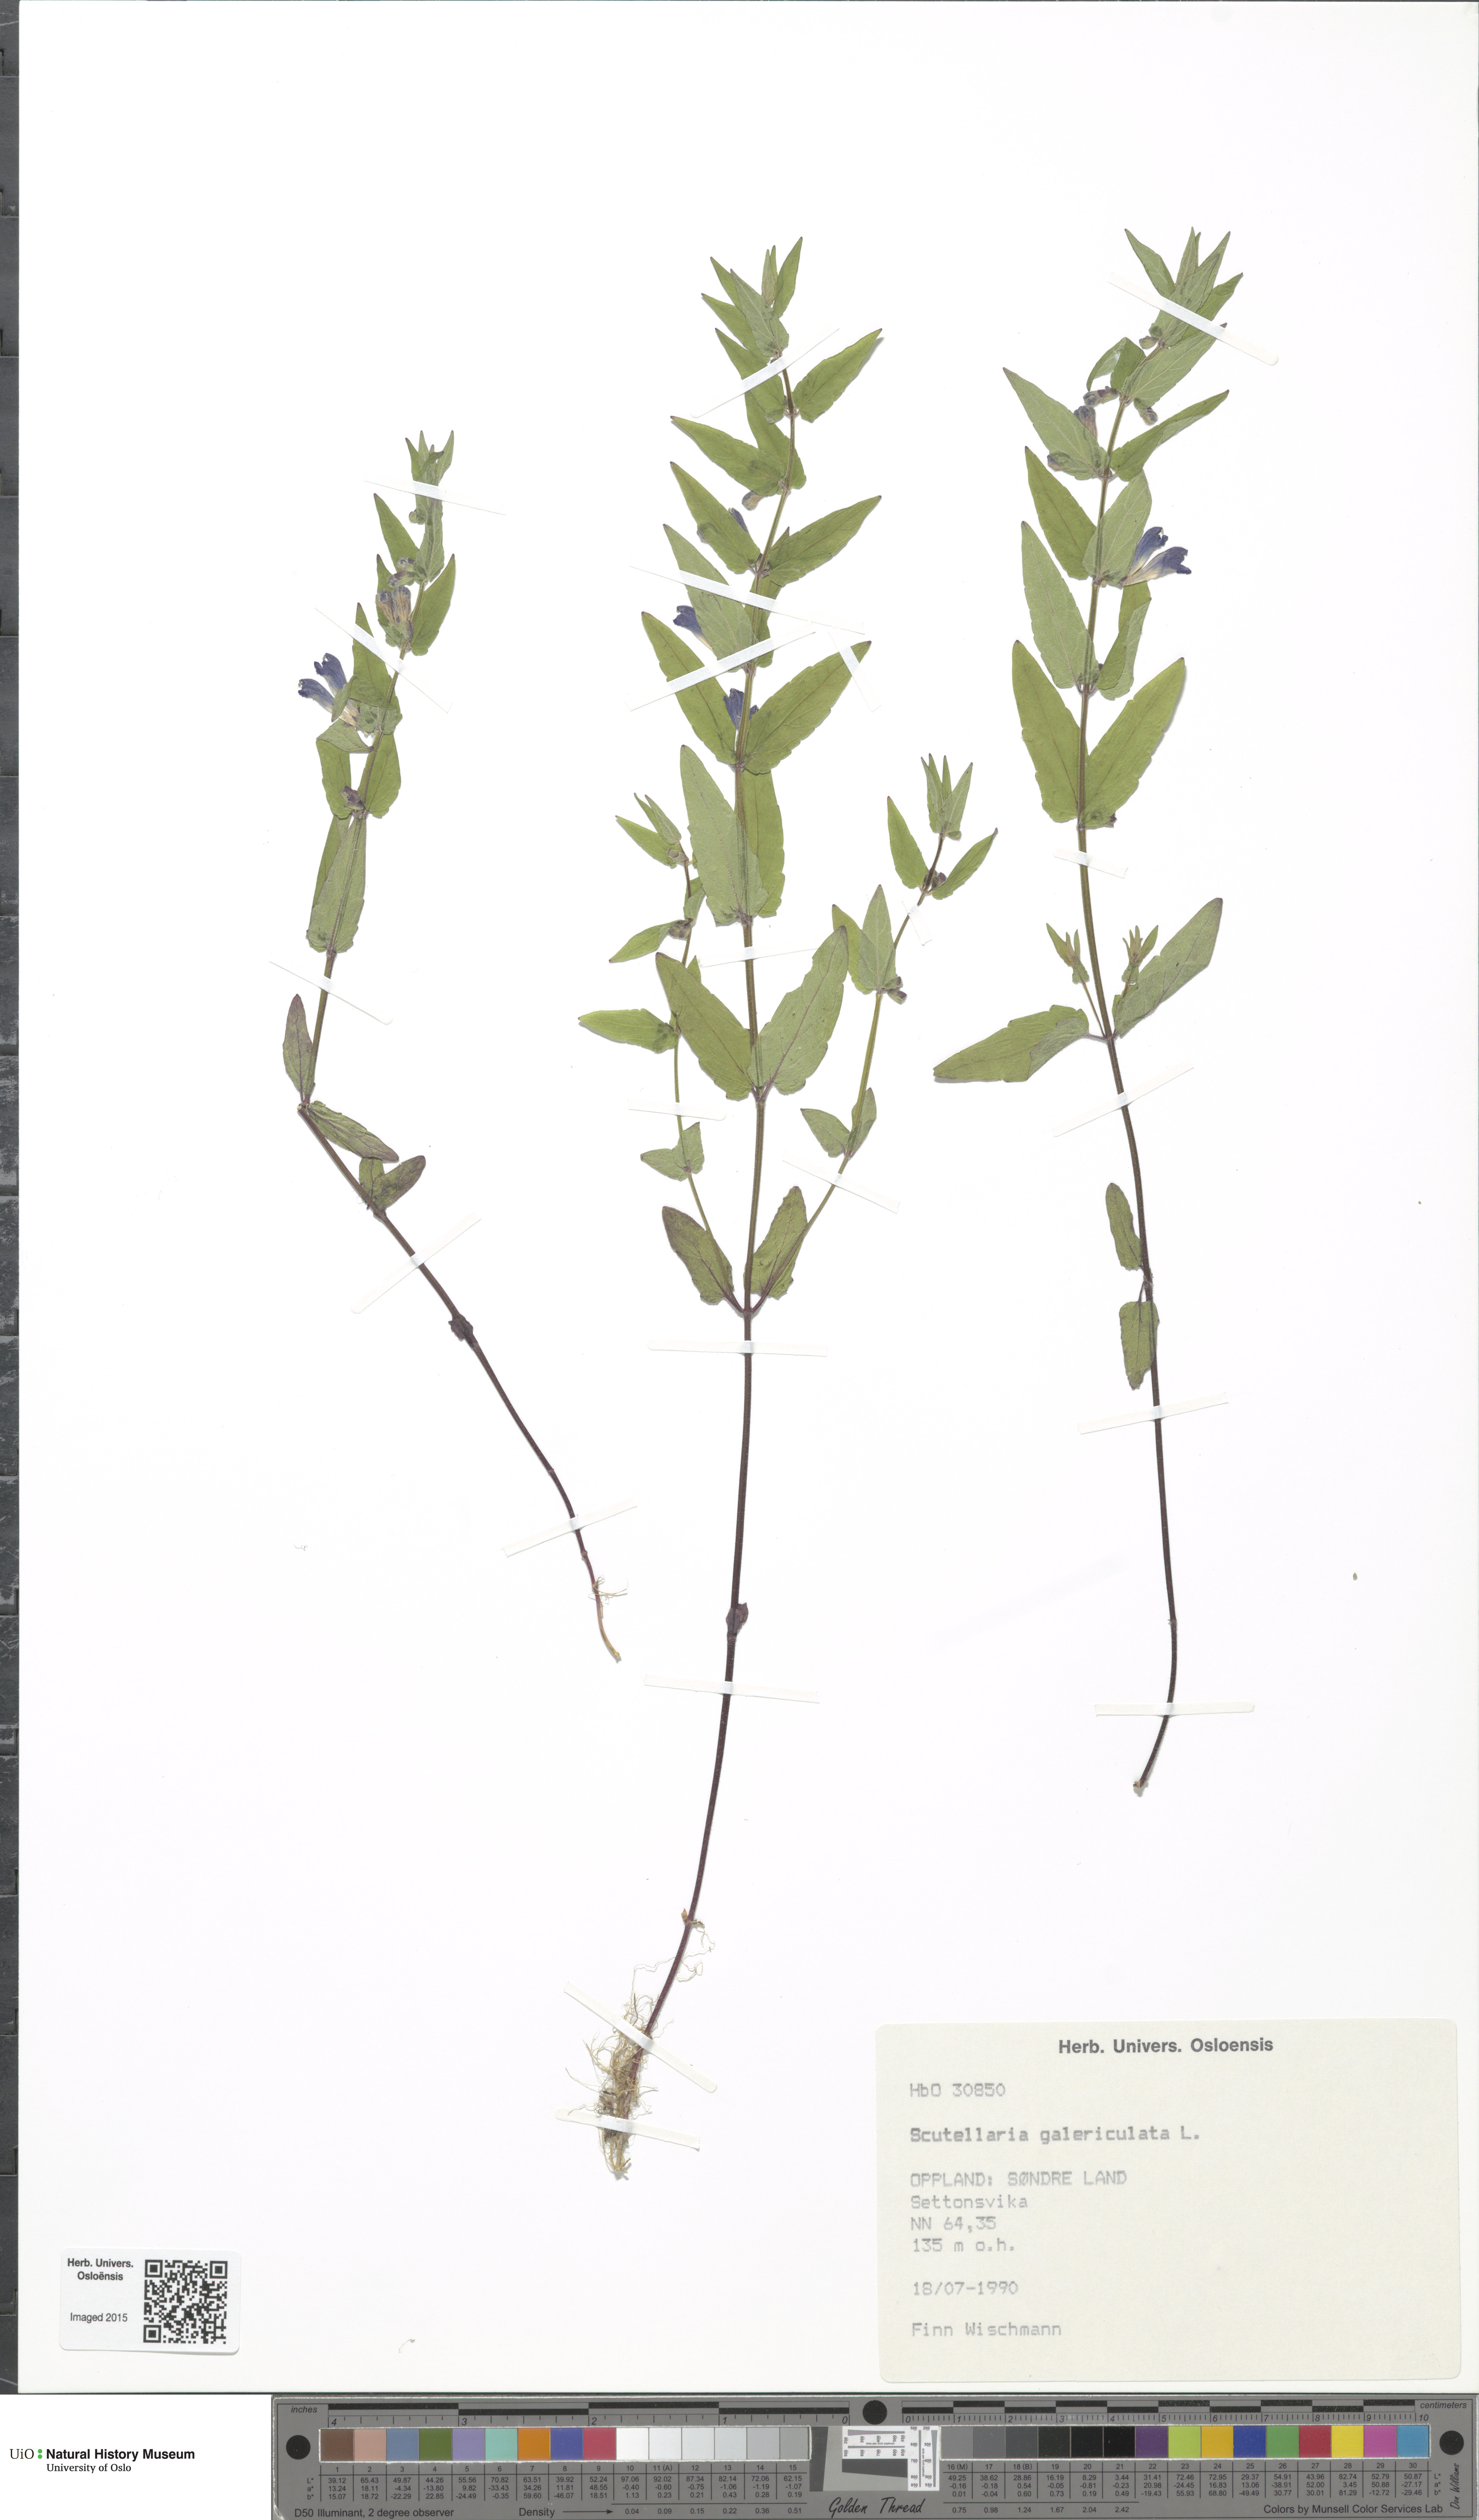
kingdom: Plantae
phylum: Tracheophyta
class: Magnoliopsida
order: Lamiales
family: Lamiaceae
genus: Scutellaria
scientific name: Scutellaria galericulata
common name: Skullcap
